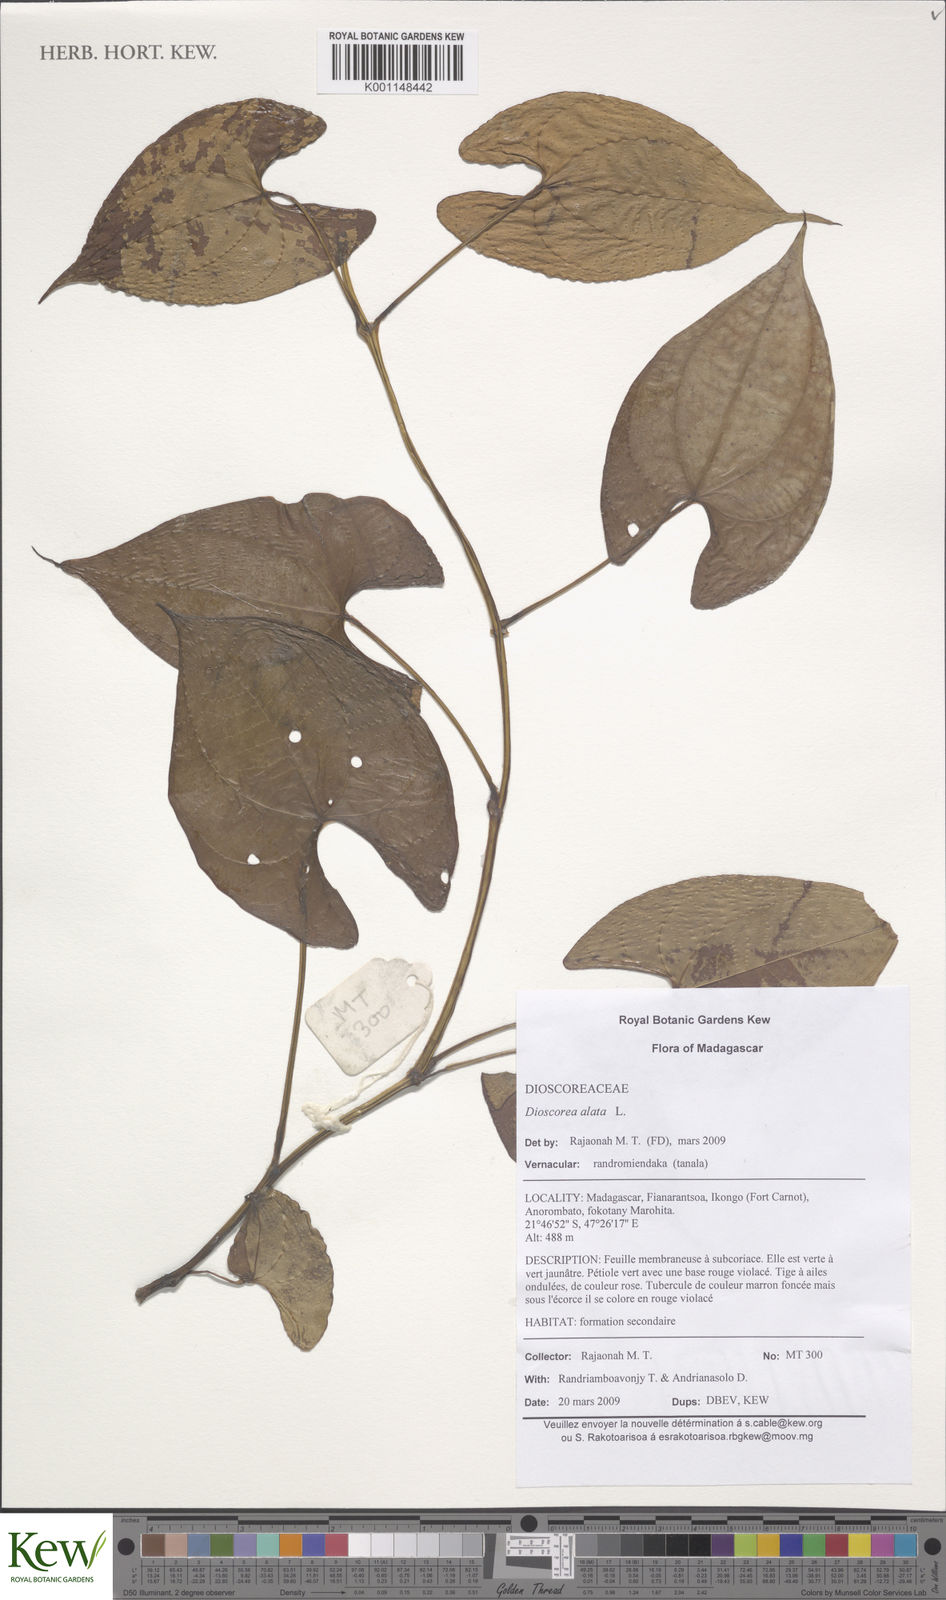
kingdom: Plantae
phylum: Tracheophyta
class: Liliopsida
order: Dioscoreales
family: Dioscoreaceae
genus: Dioscorea
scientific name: Dioscorea alata
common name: Water yam
